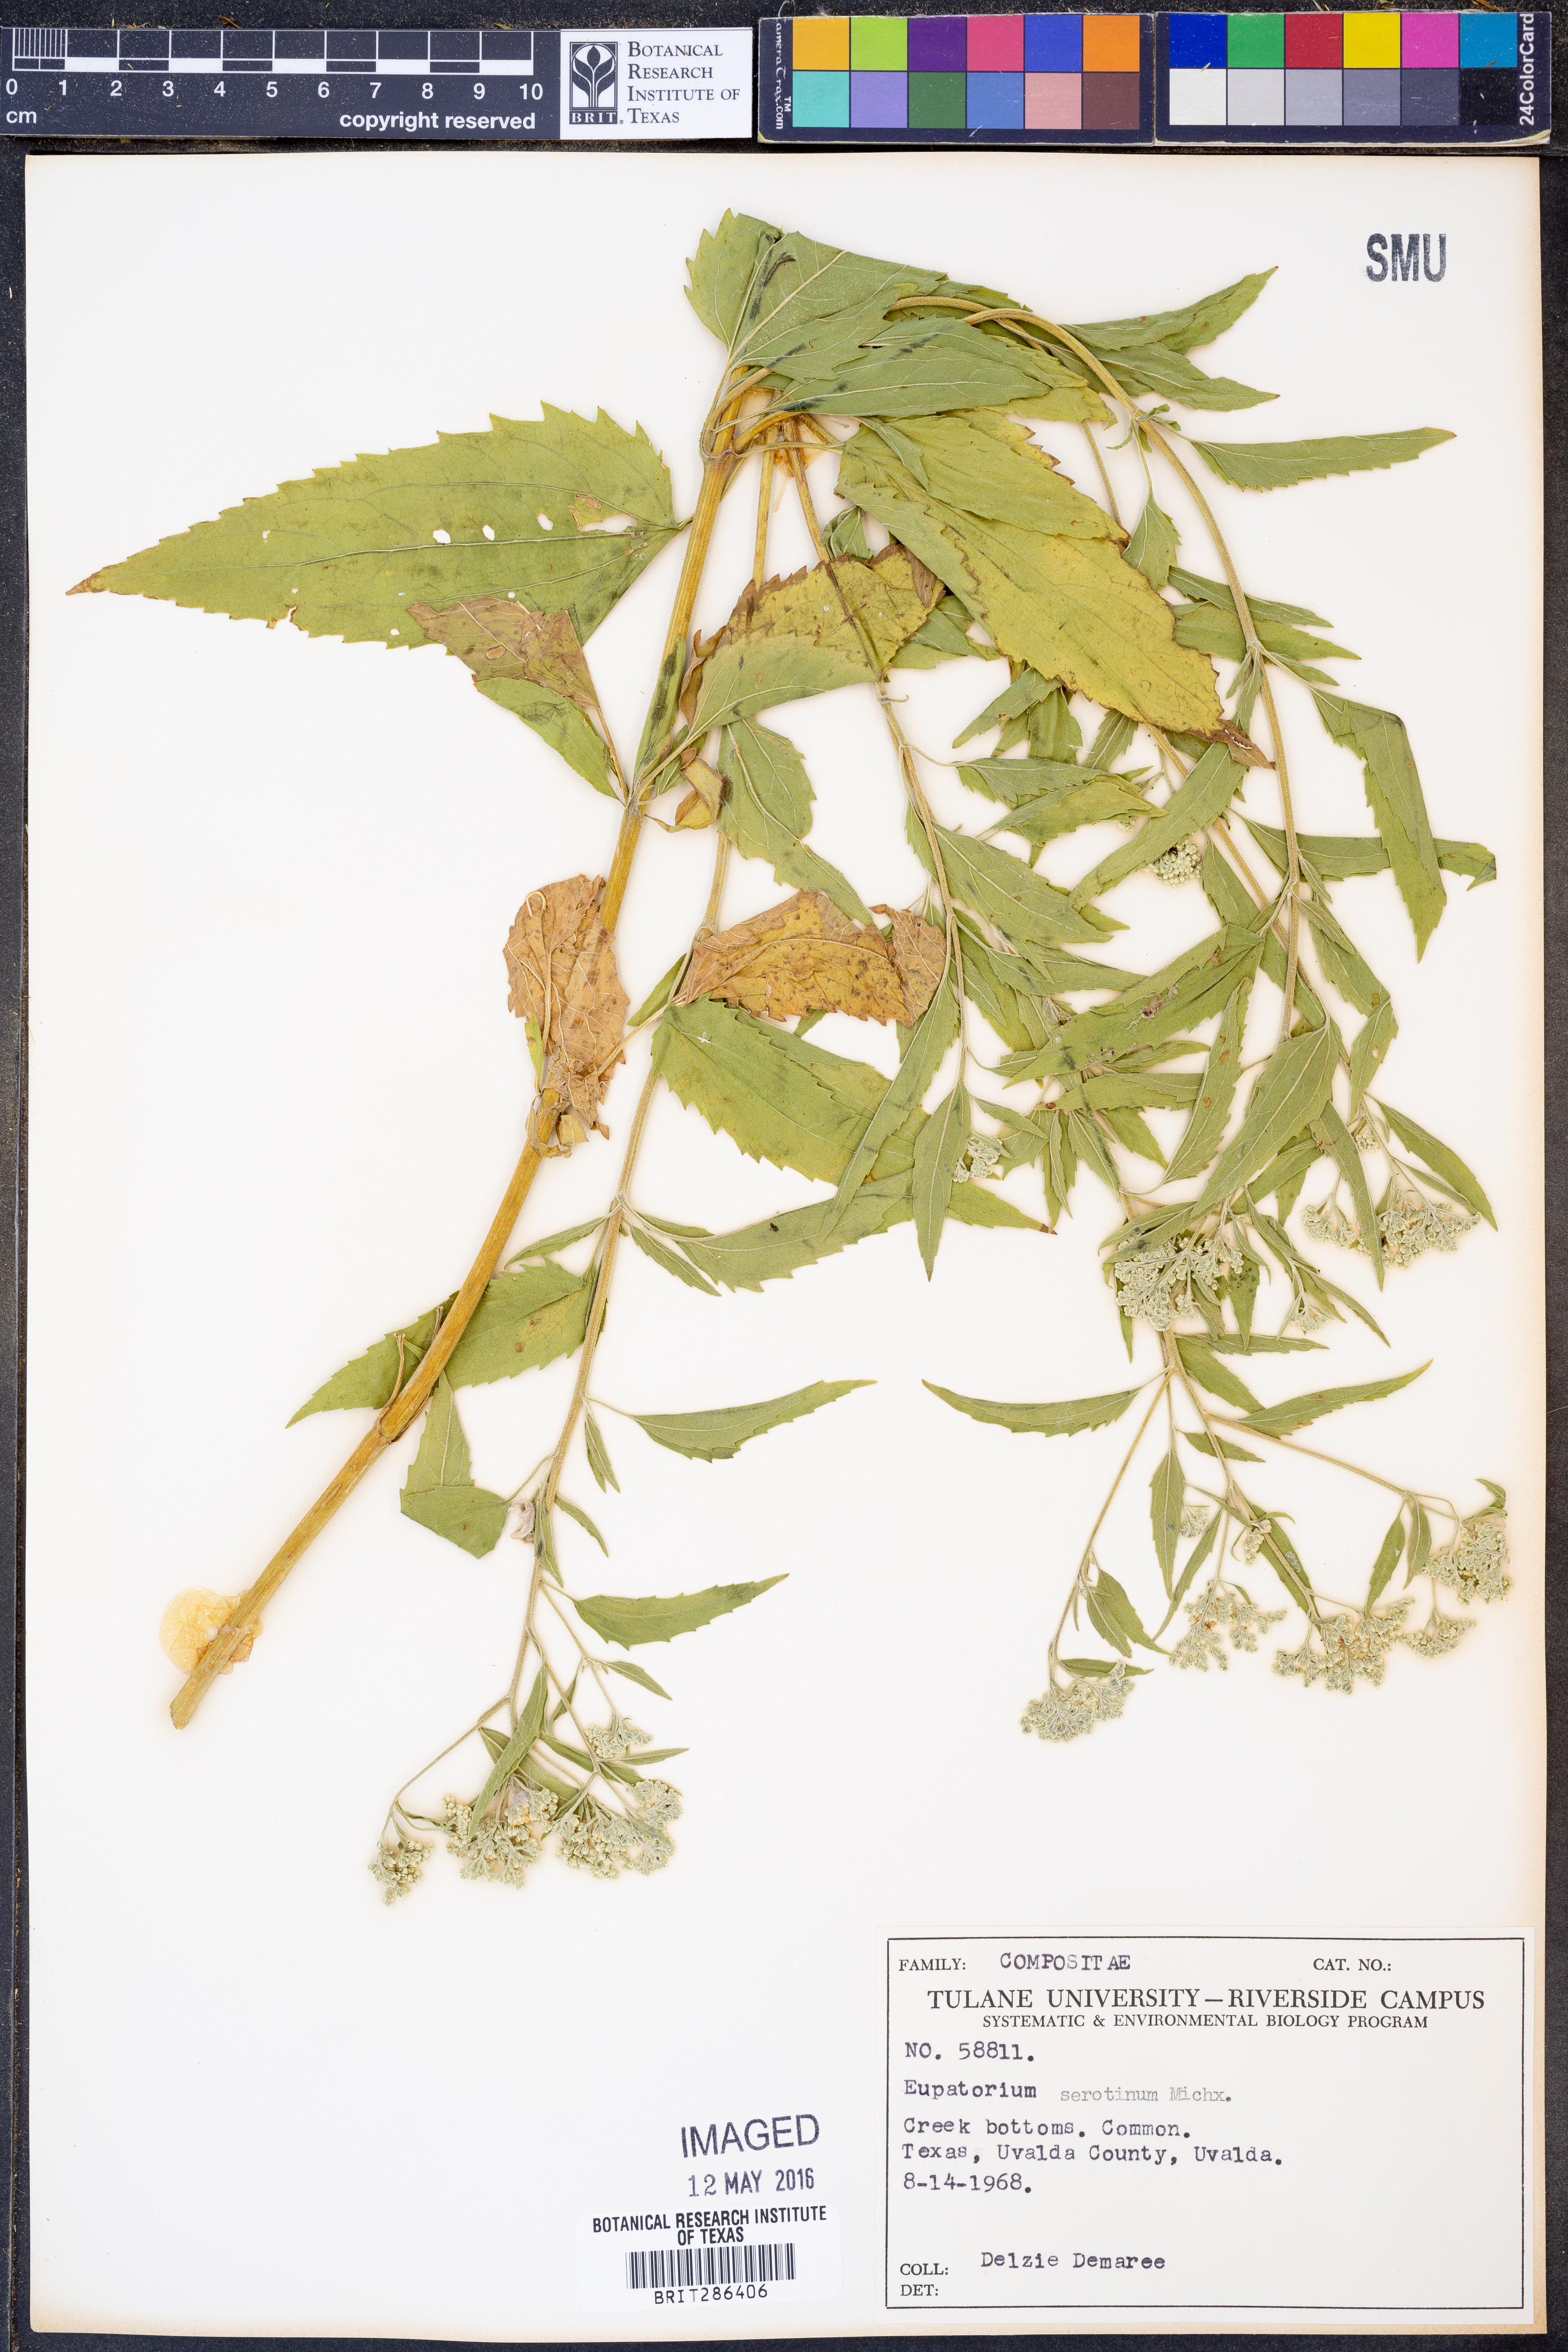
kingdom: Plantae
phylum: Tracheophyta
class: Magnoliopsida
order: Asterales
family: Asteraceae
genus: Eupatorium
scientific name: Eupatorium serotinum
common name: Late boneset
